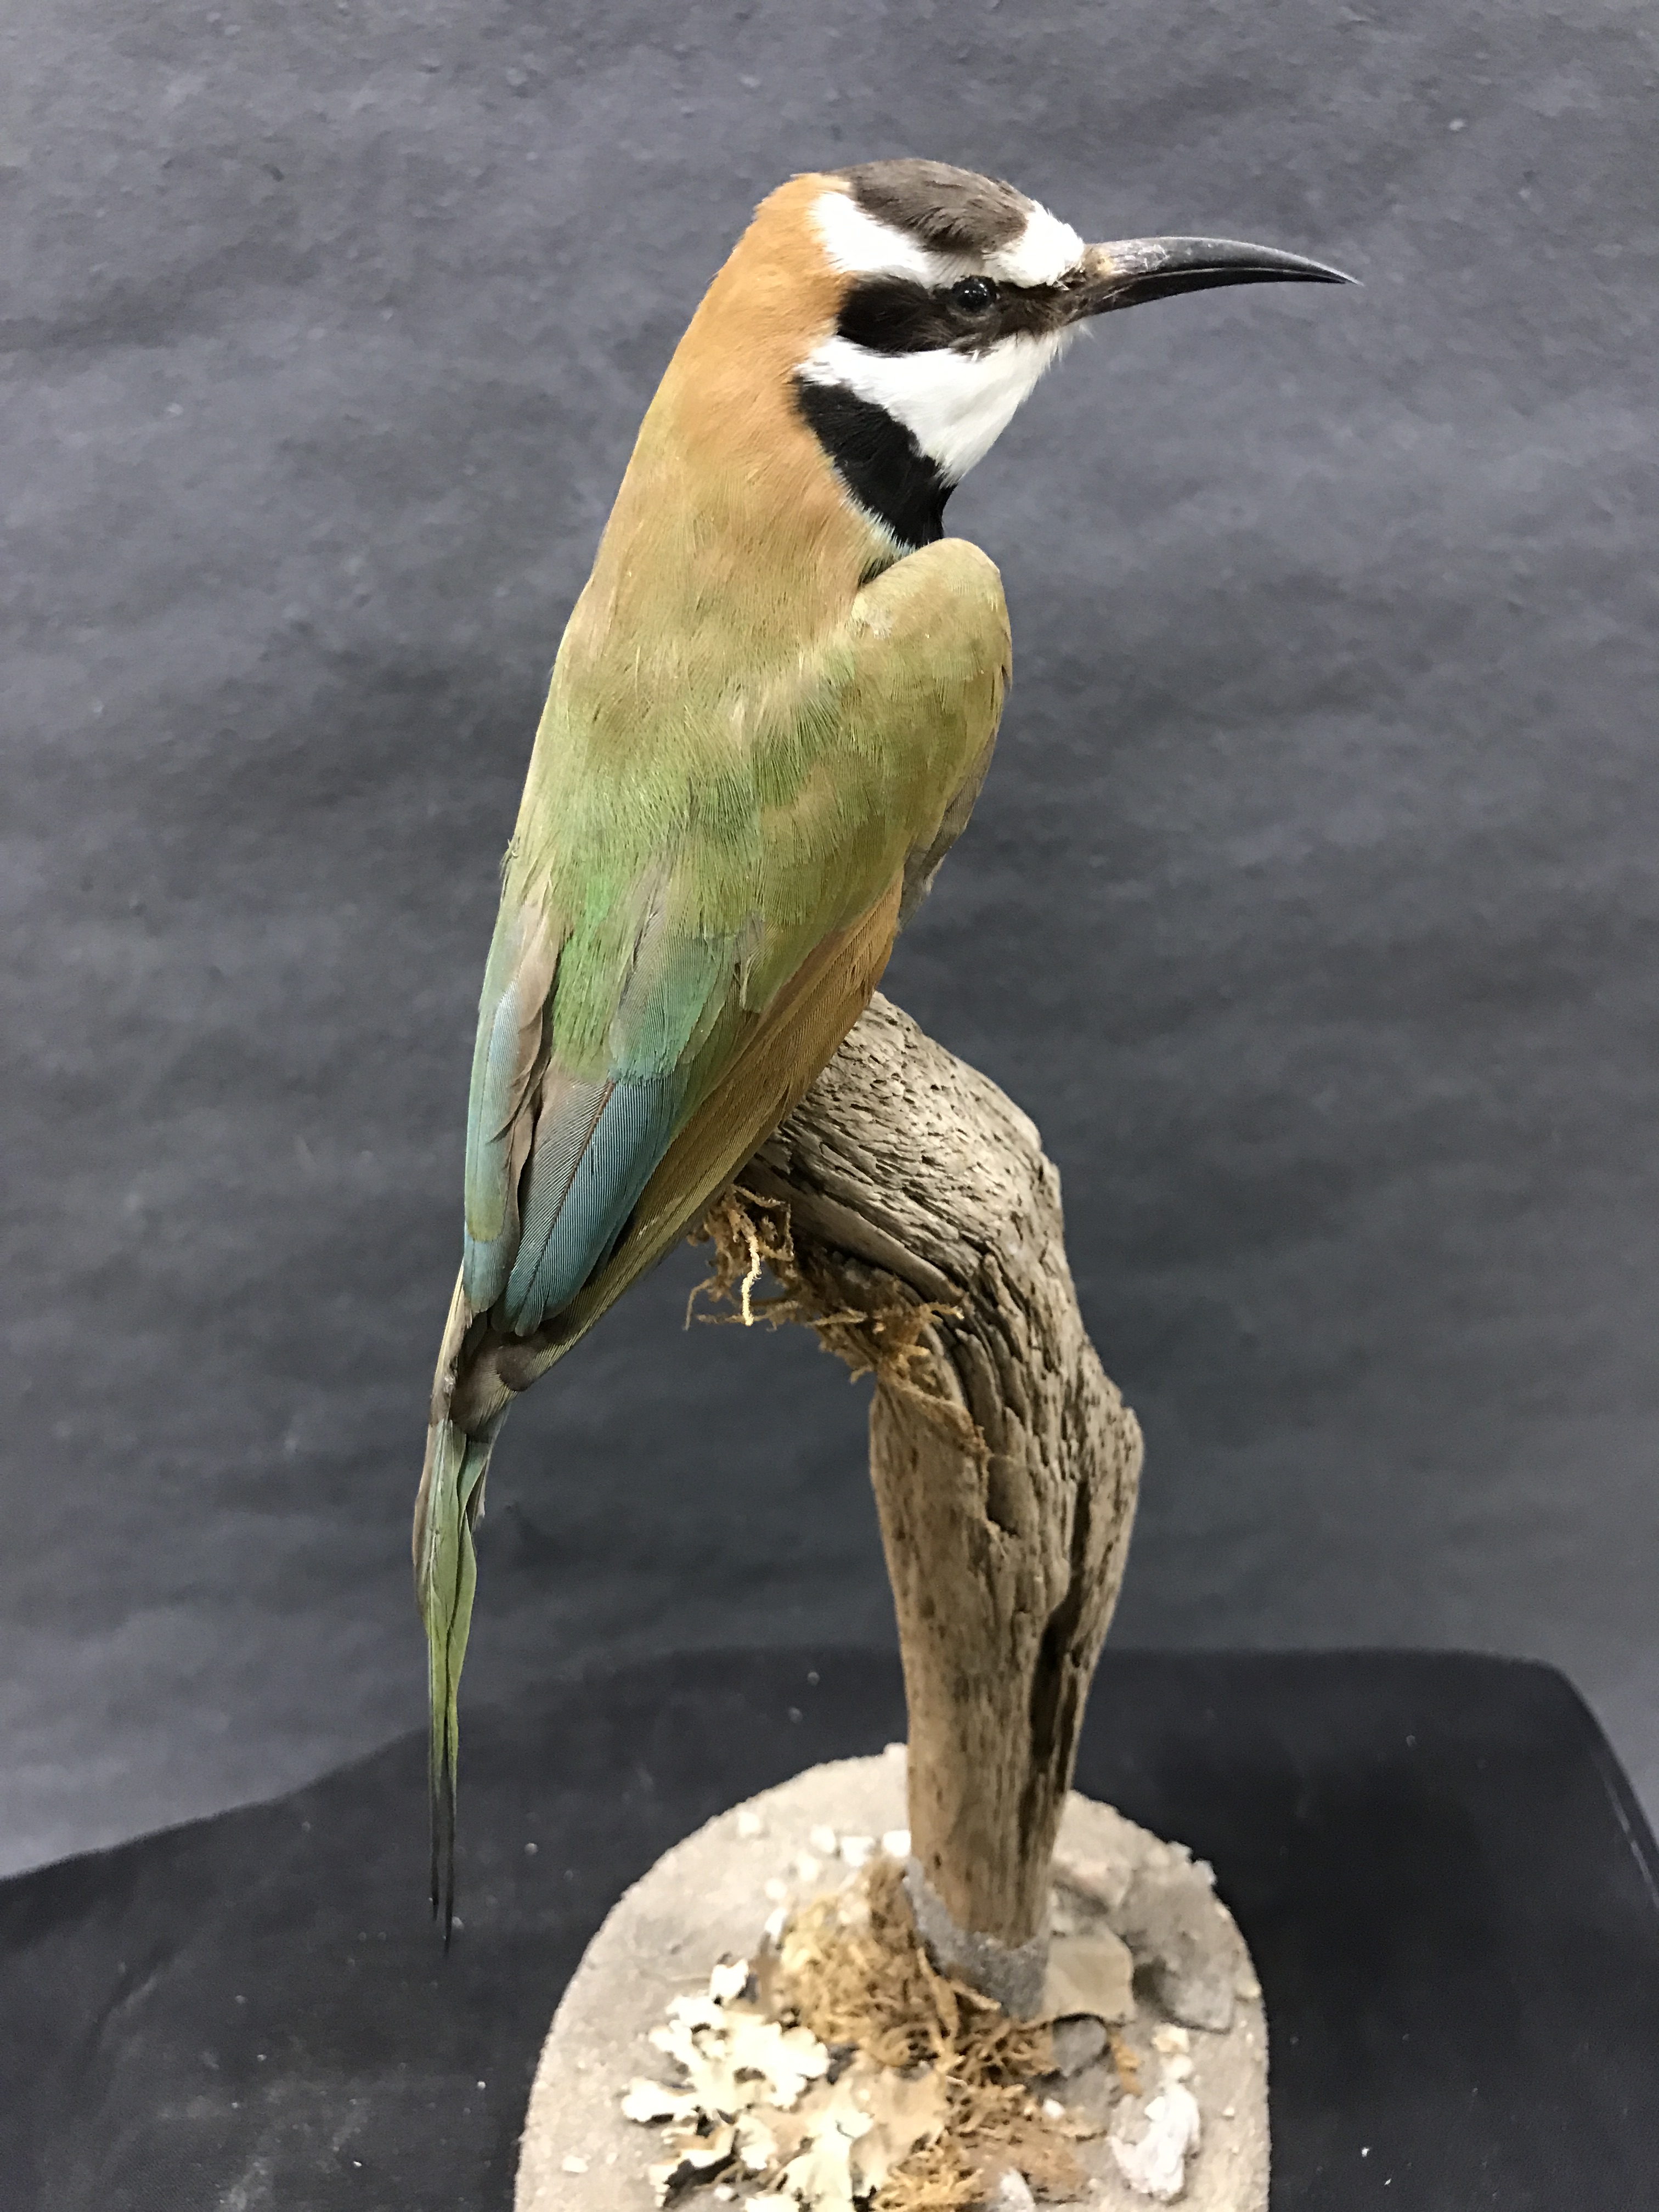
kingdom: Animalia
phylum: Chordata
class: Aves
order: Coraciiformes
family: Meropidae
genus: Merops
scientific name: Merops albicollis
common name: White-throated bee-eater
